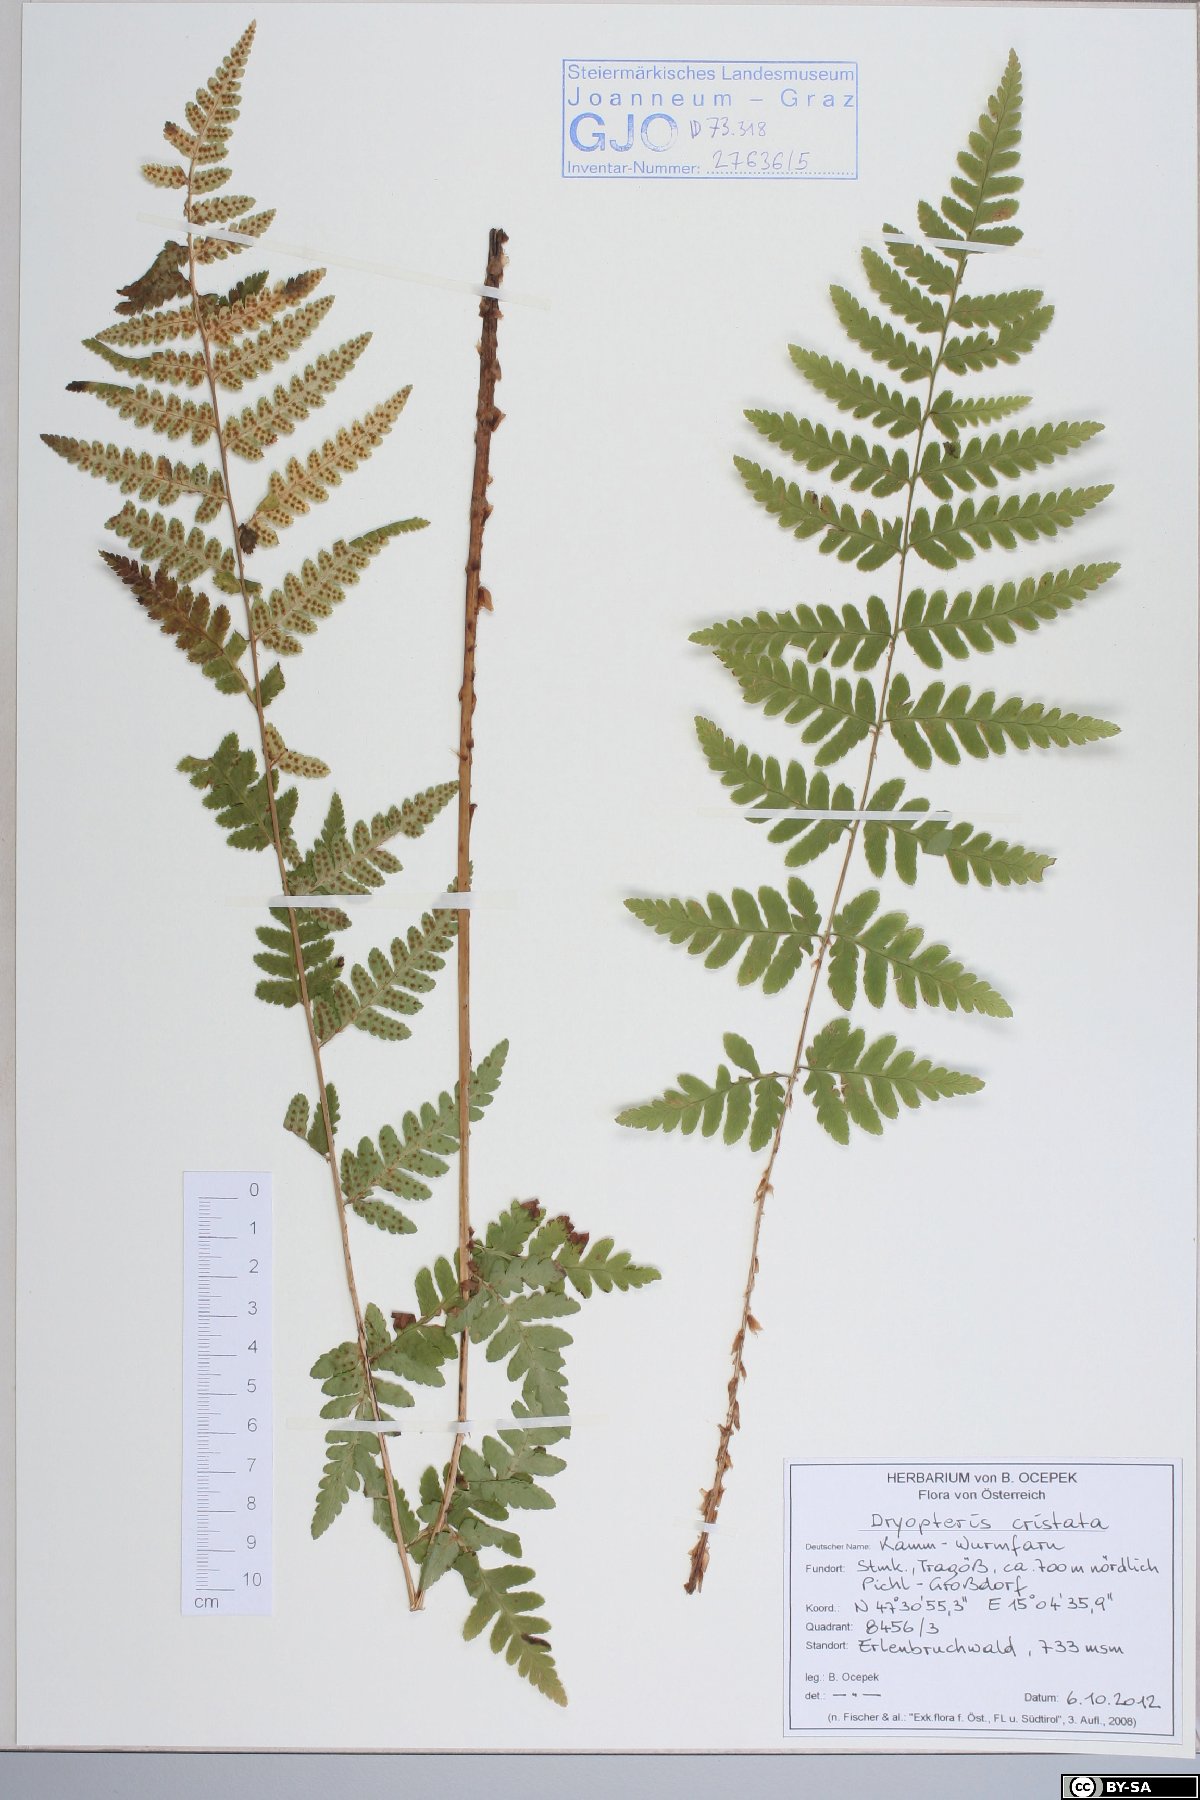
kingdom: Plantae
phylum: Tracheophyta
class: Polypodiopsida
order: Polypodiales
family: Dryopteridaceae
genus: Dryopteris
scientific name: Dryopteris cristata
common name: Crested wood fern
